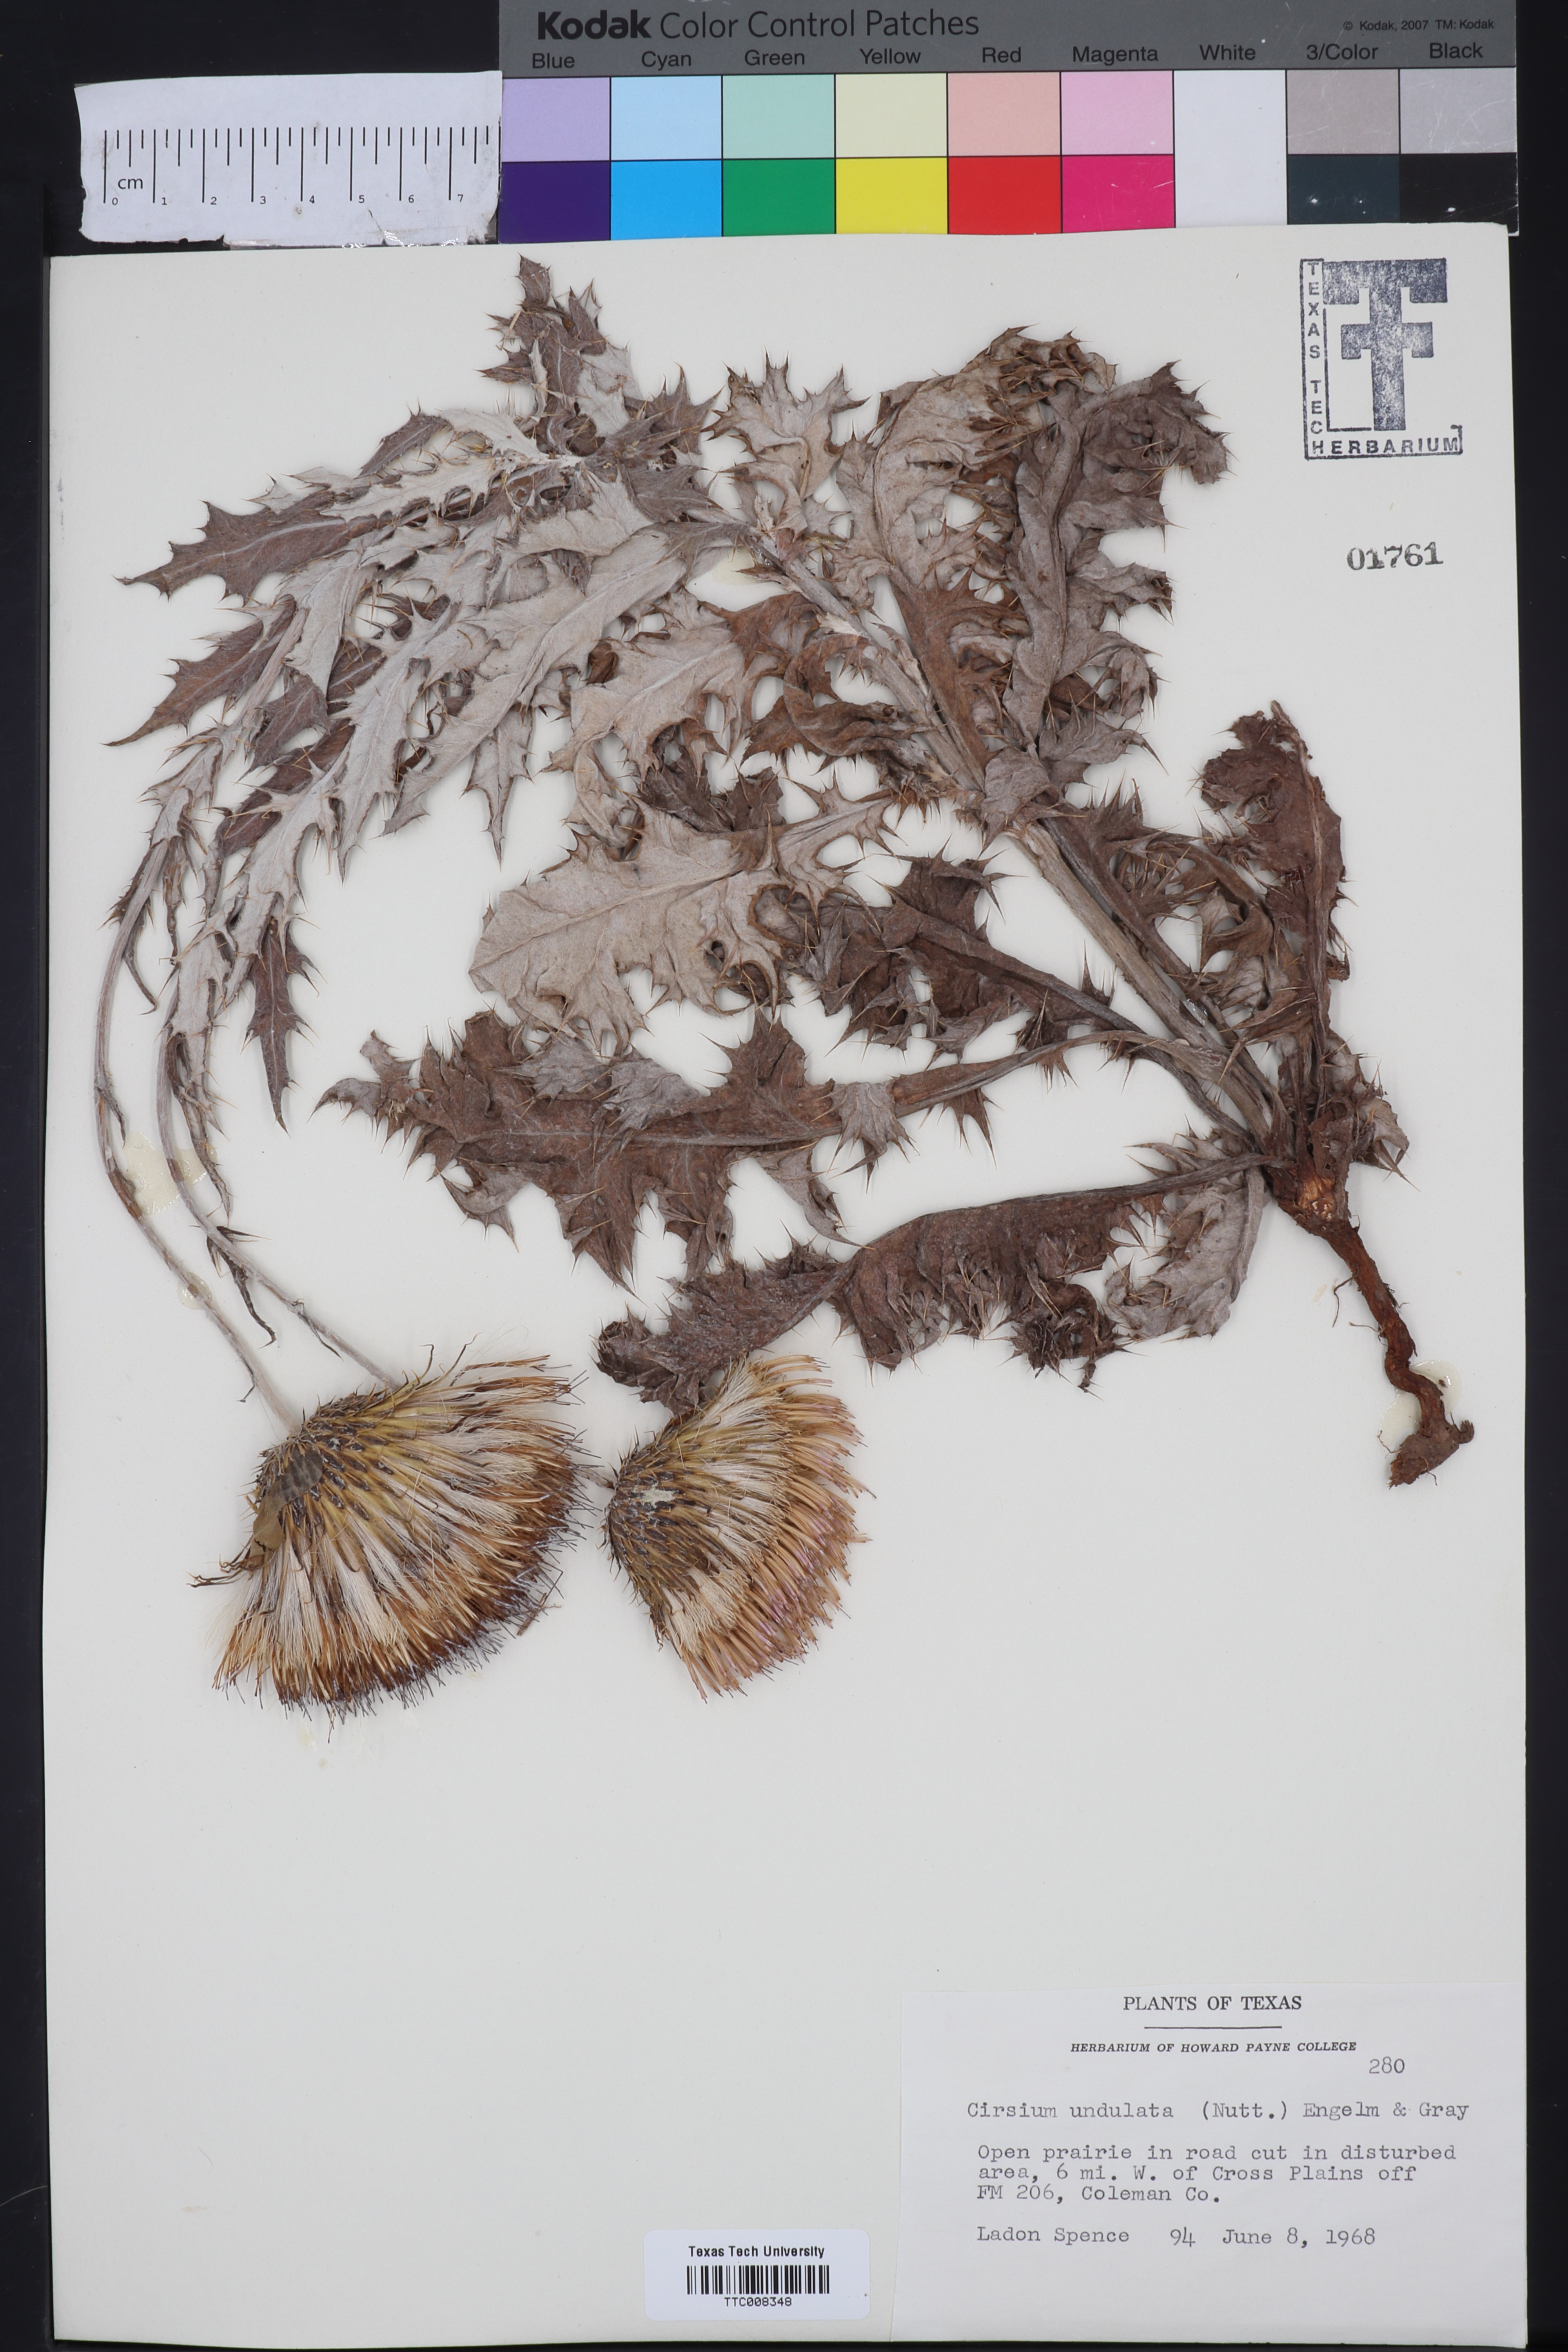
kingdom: Plantae
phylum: Tracheophyta
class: Magnoliopsida
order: Asterales
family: Asteraceae
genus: Cirsium
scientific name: Cirsium undulatum
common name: Pasture thistle
